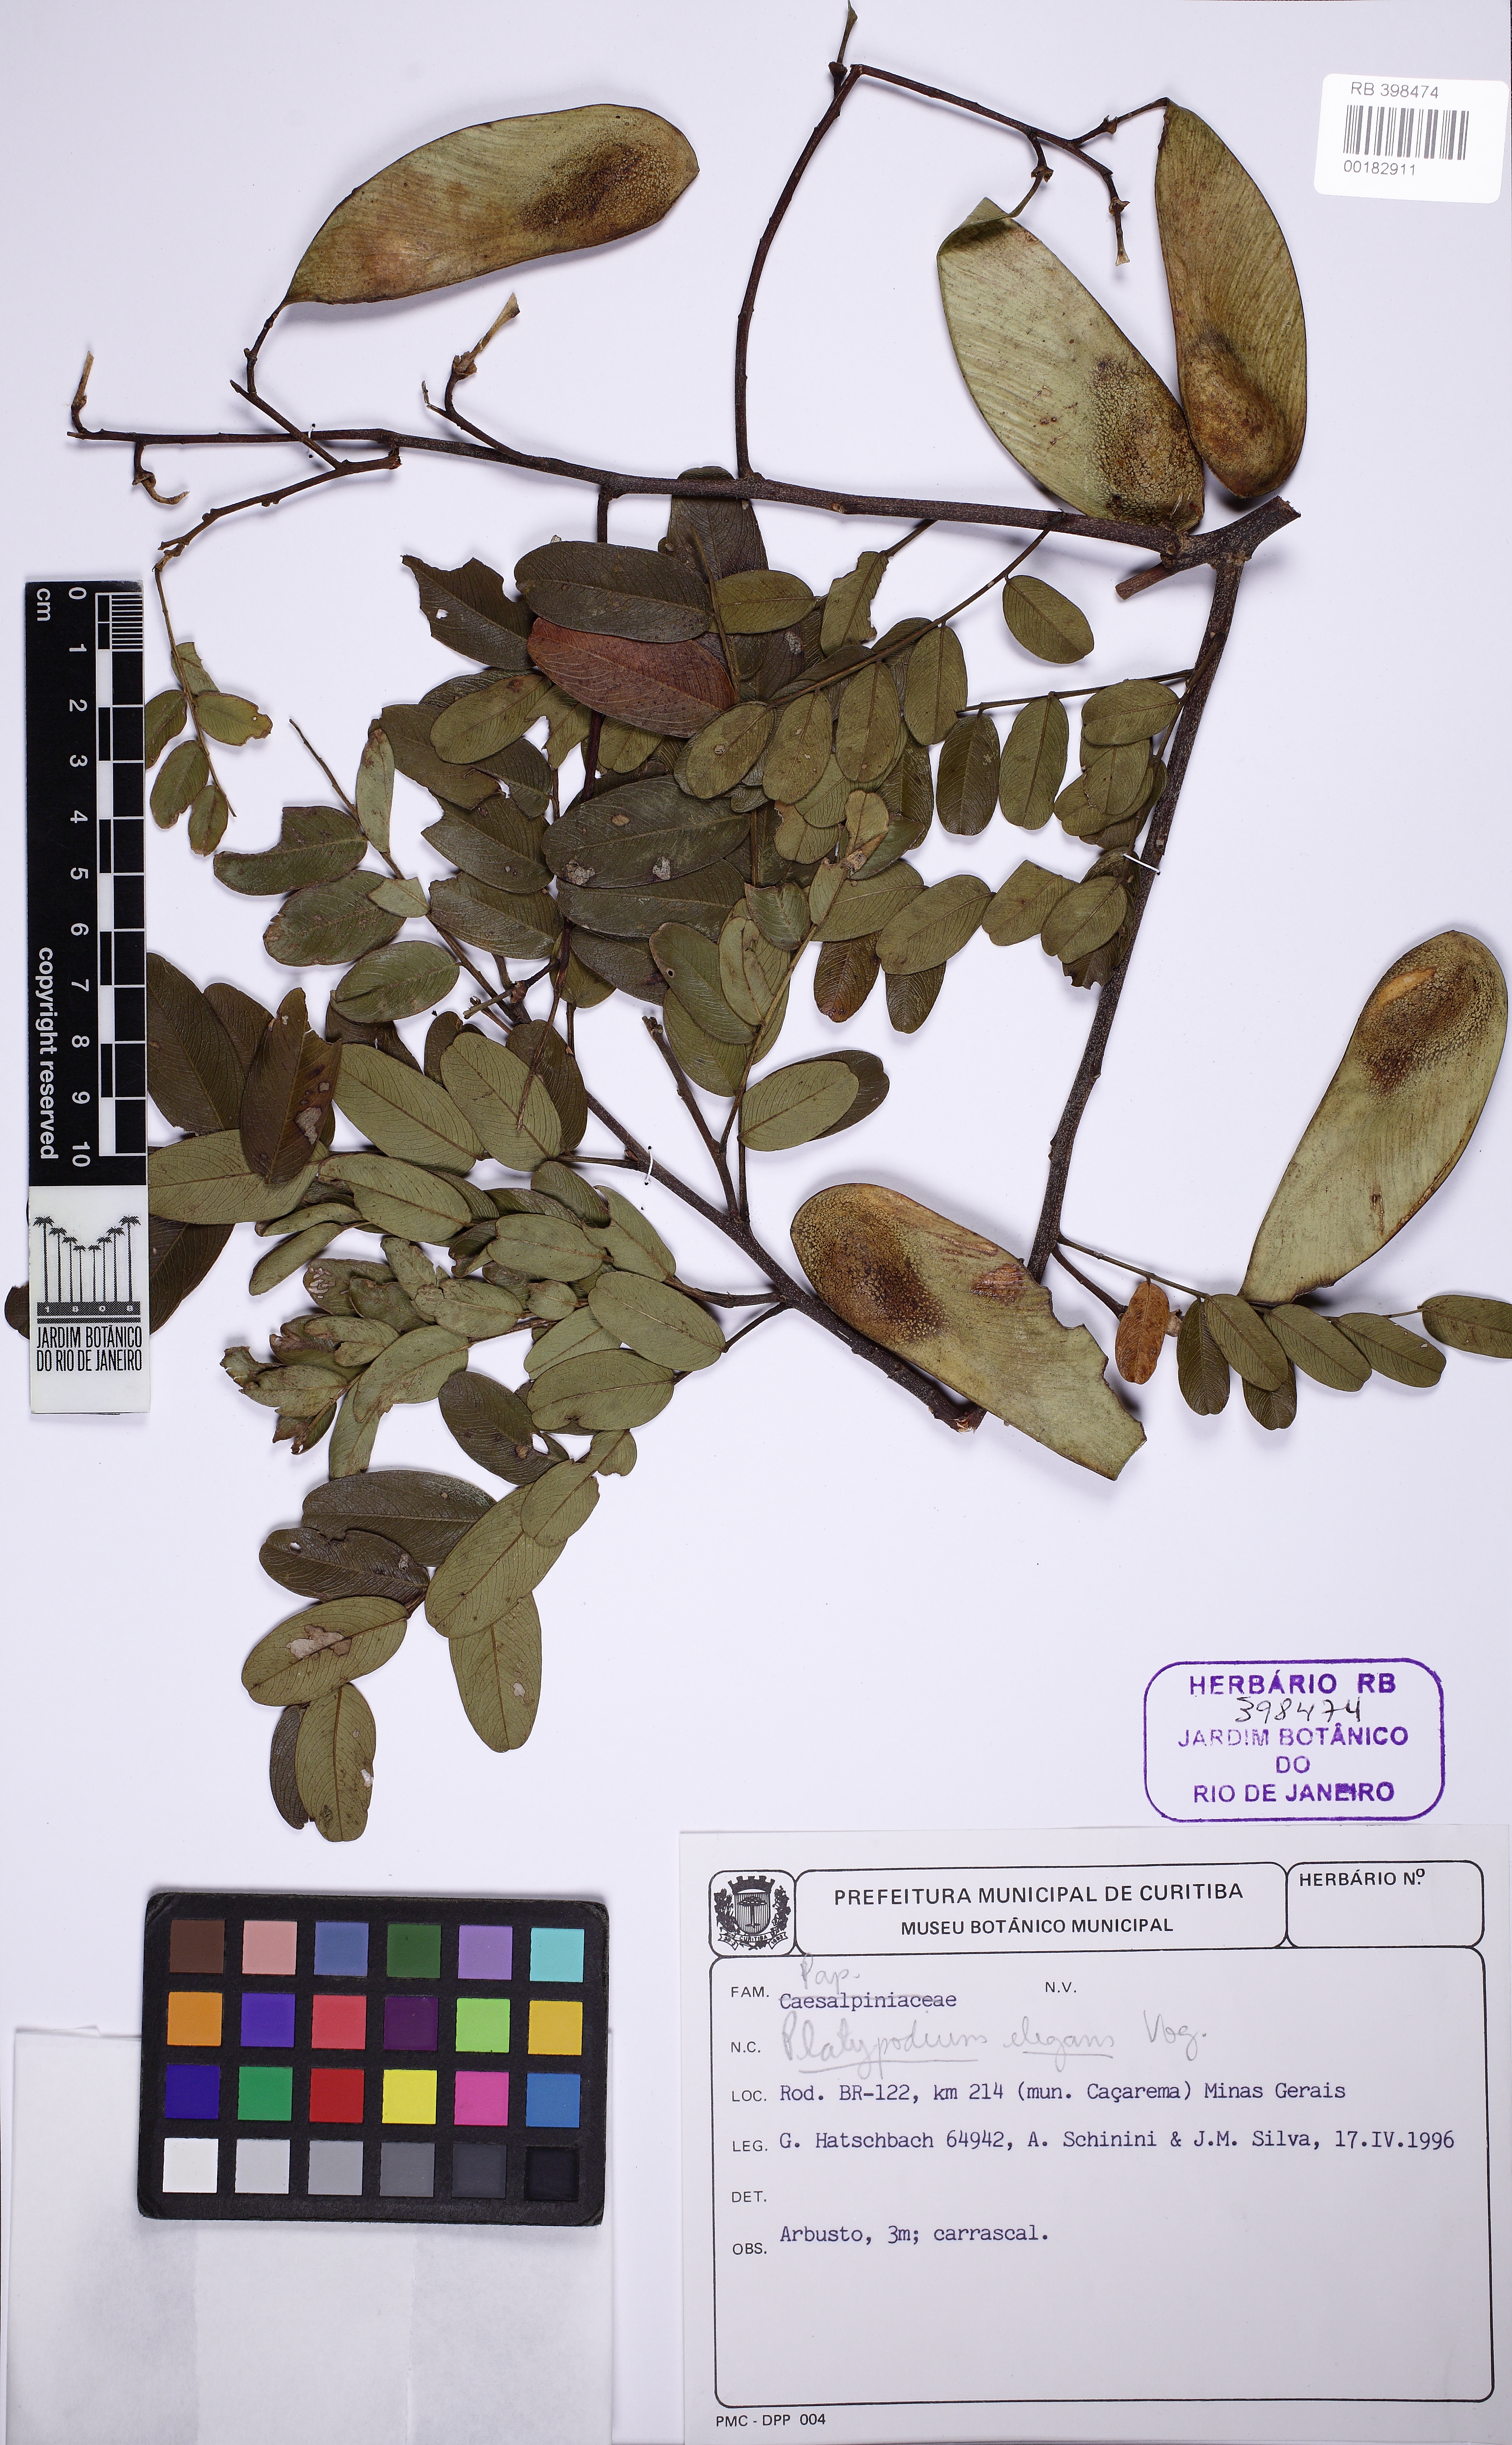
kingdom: Plantae
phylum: Tracheophyta
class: Magnoliopsida
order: Fabales
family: Fabaceae
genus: Platypodium
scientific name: Platypodium elegans
